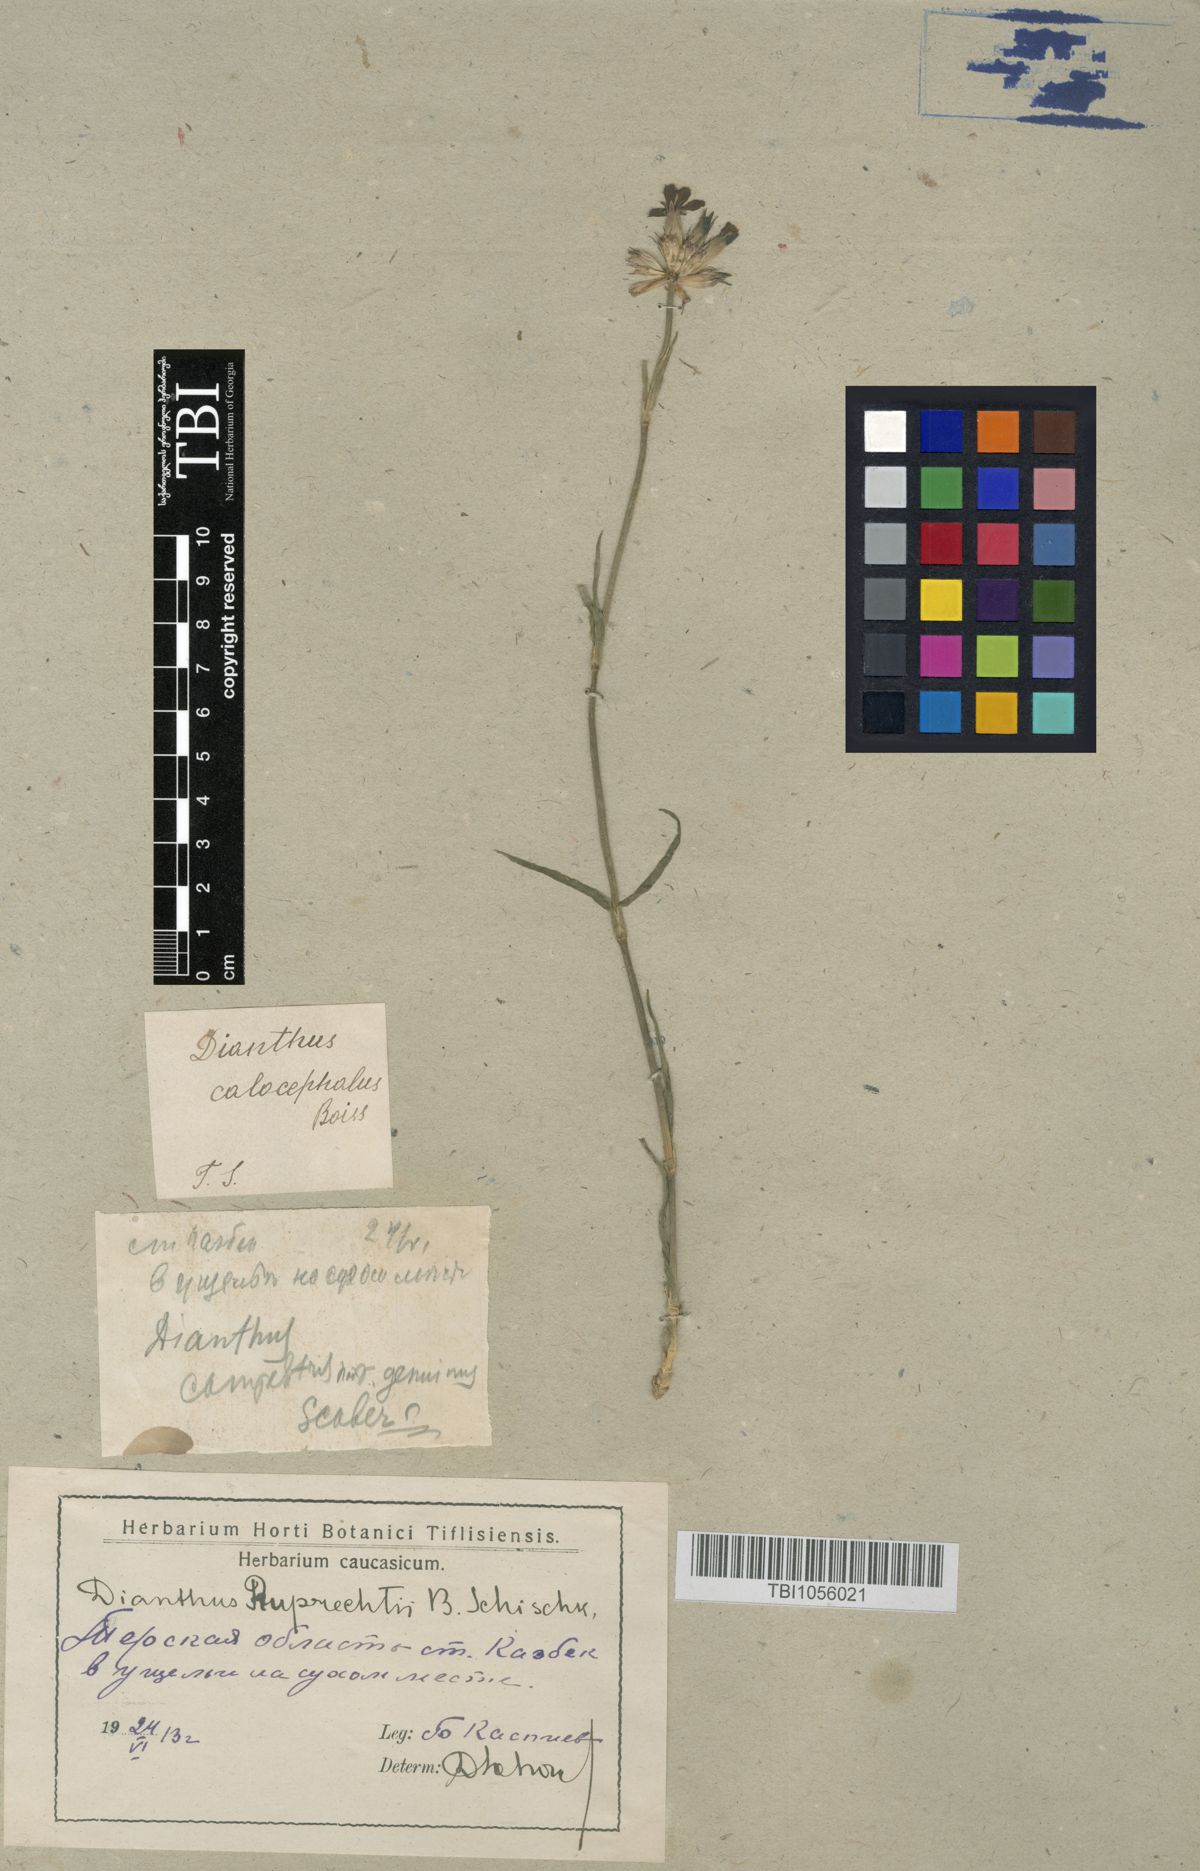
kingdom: Plantae
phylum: Tracheophyta
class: Magnoliopsida
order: Caryophyllales
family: Caryophyllaceae
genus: Dianthus
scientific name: Dianthus ruprechtii
